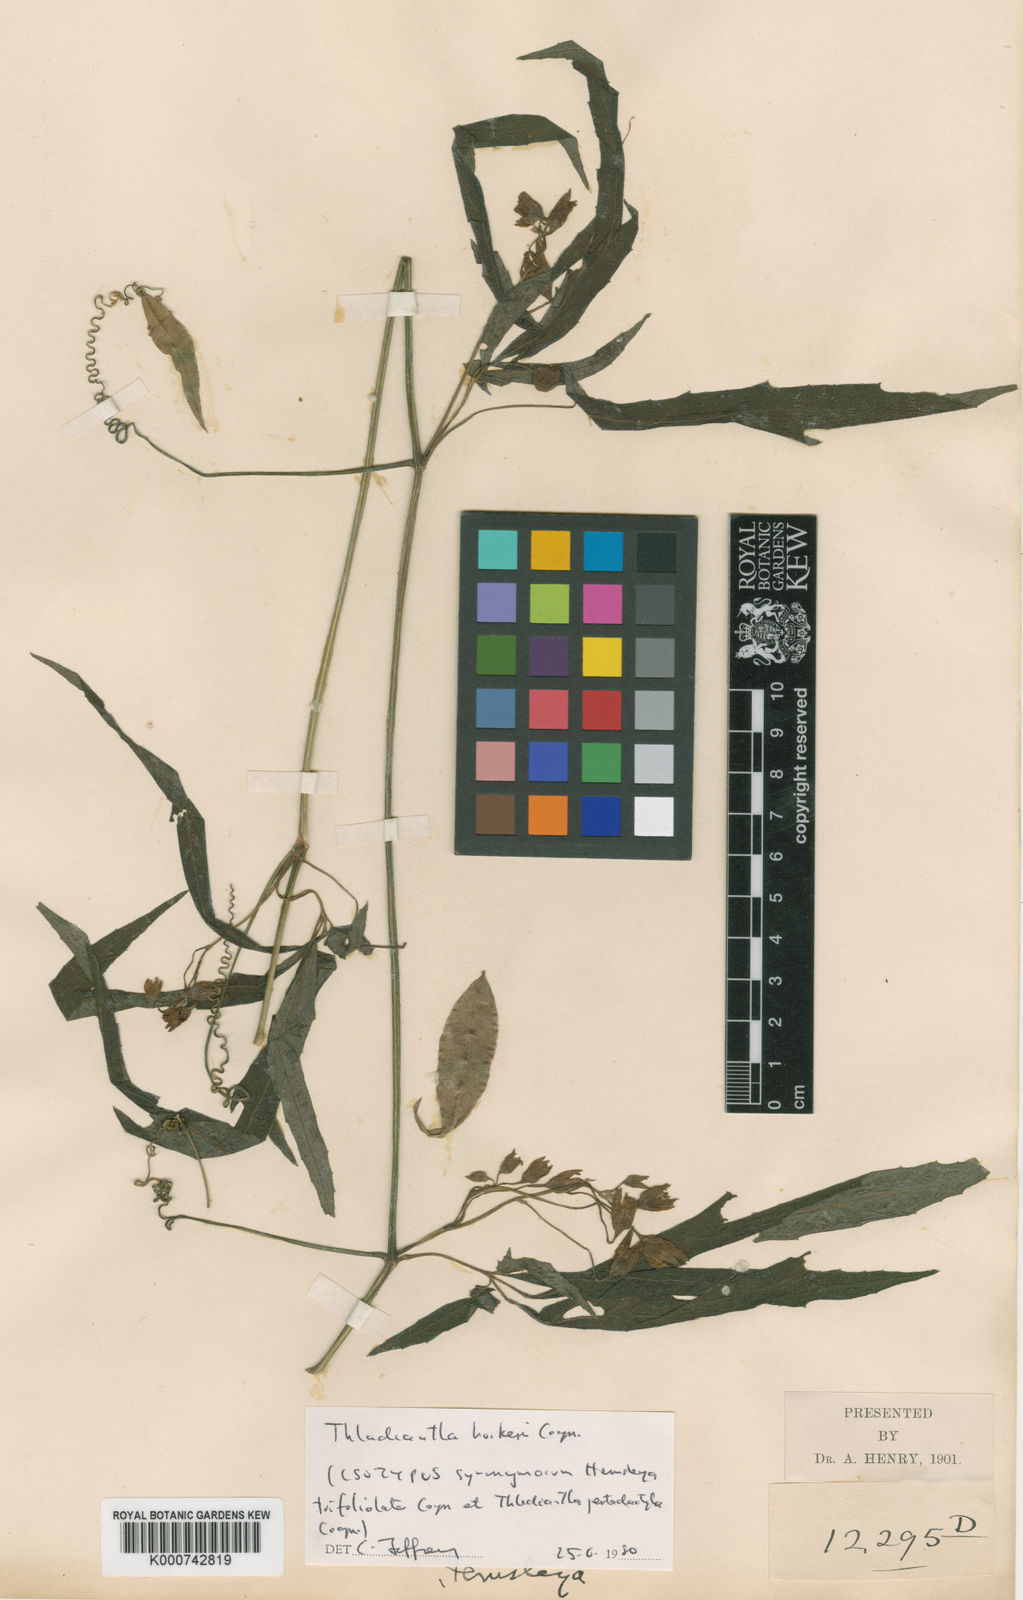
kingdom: Plantae
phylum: Tracheophyta
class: Magnoliopsida
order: Cucurbitales
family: Cucurbitaceae
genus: Thladiantha
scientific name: Thladiantha
